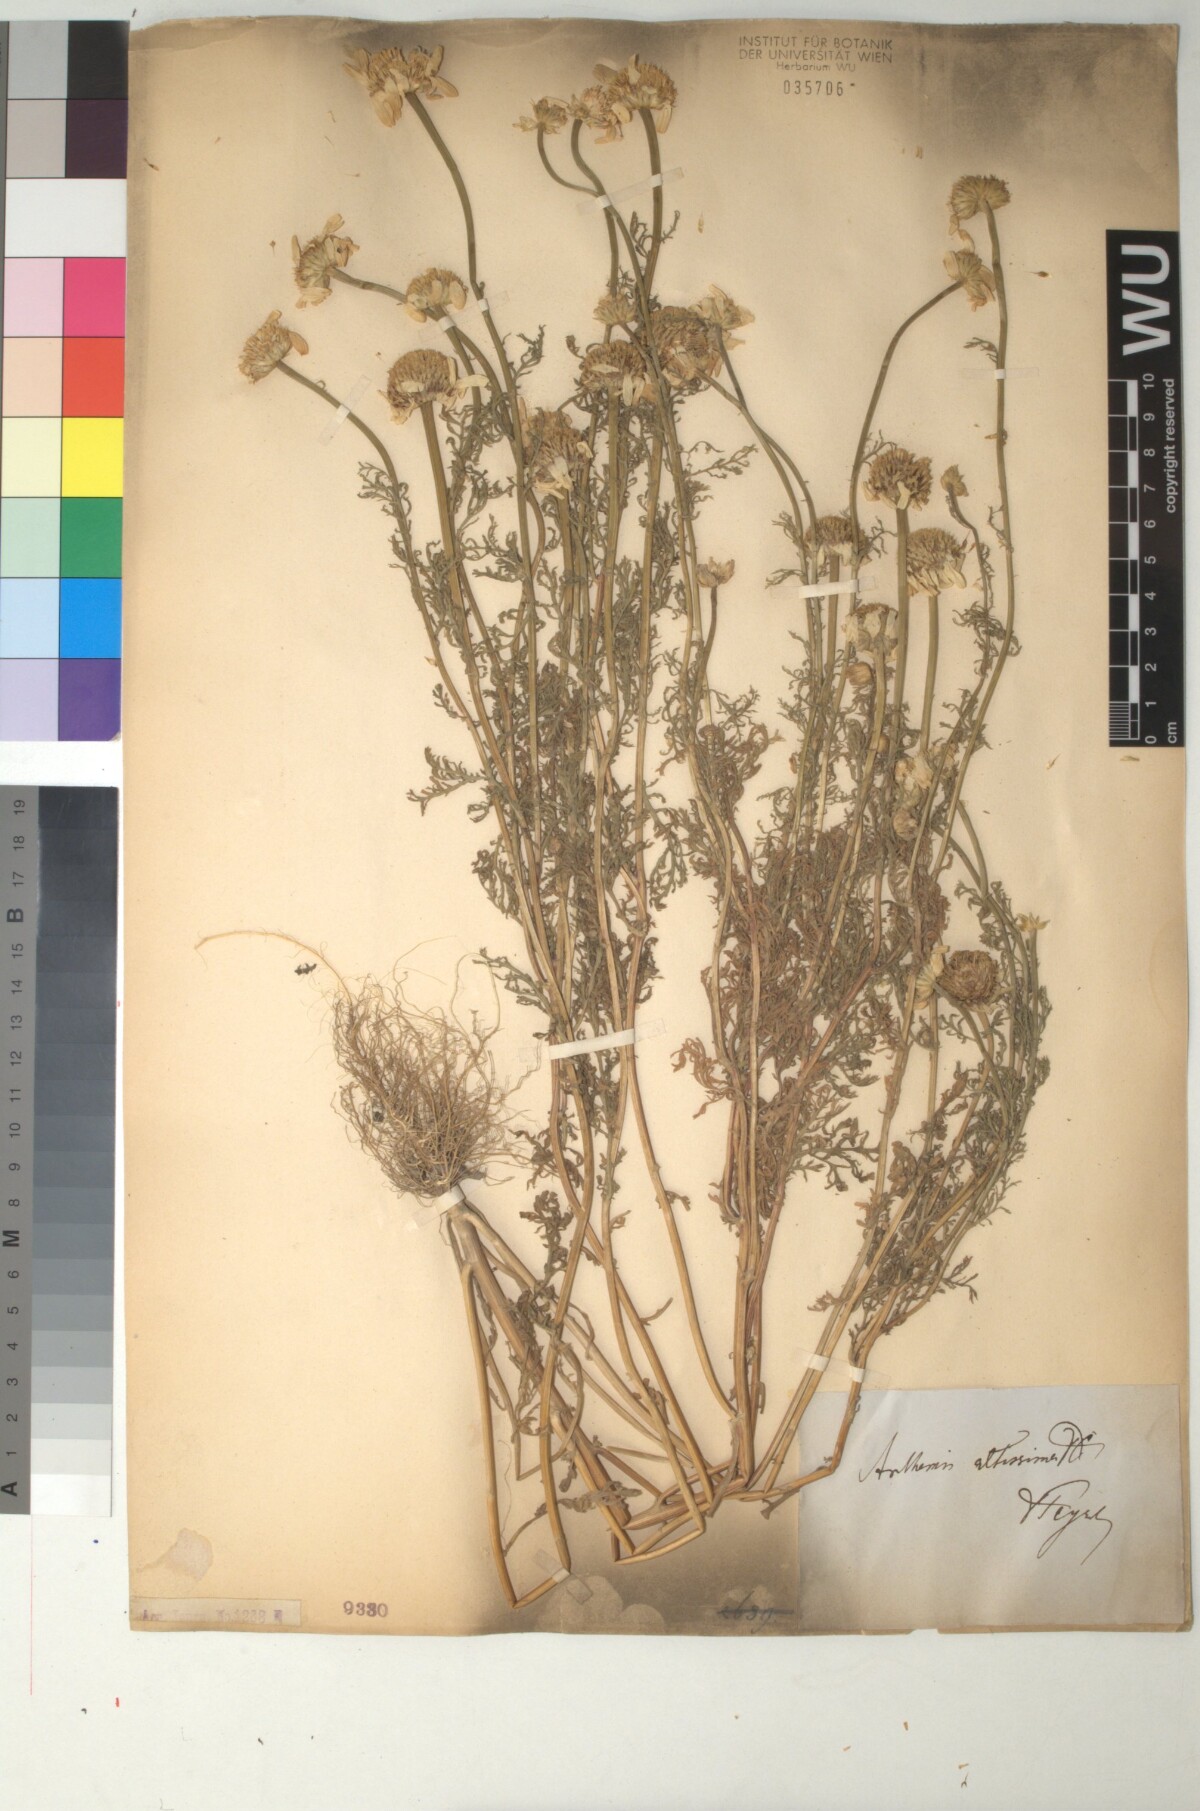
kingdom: Plantae
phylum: Tracheophyta
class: Magnoliopsida
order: Asterales
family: Asteraceae
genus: Cota
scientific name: Cota altissima
